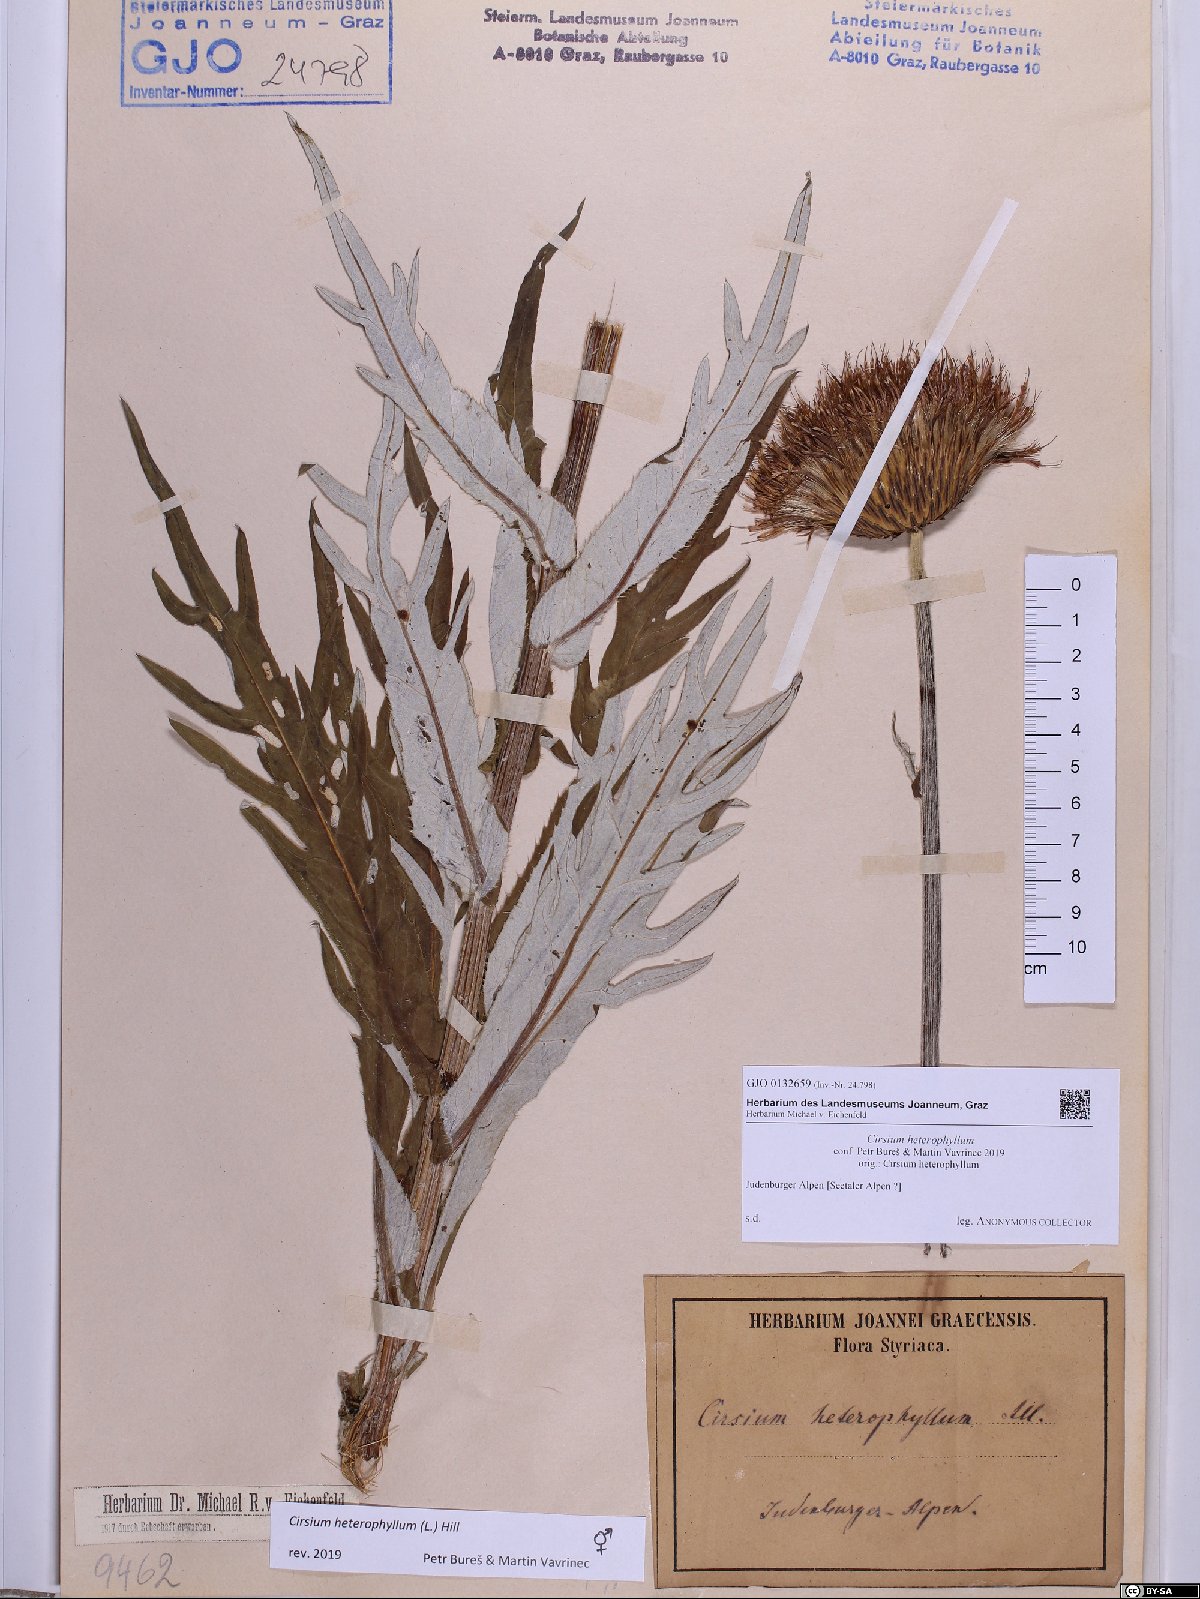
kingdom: Plantae
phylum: Tracheophyta
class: Magnoliopsida
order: Asterales
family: Asteraceae
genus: Cirsium
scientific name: Cirsium heterophyllum
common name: Melancholy thistle
